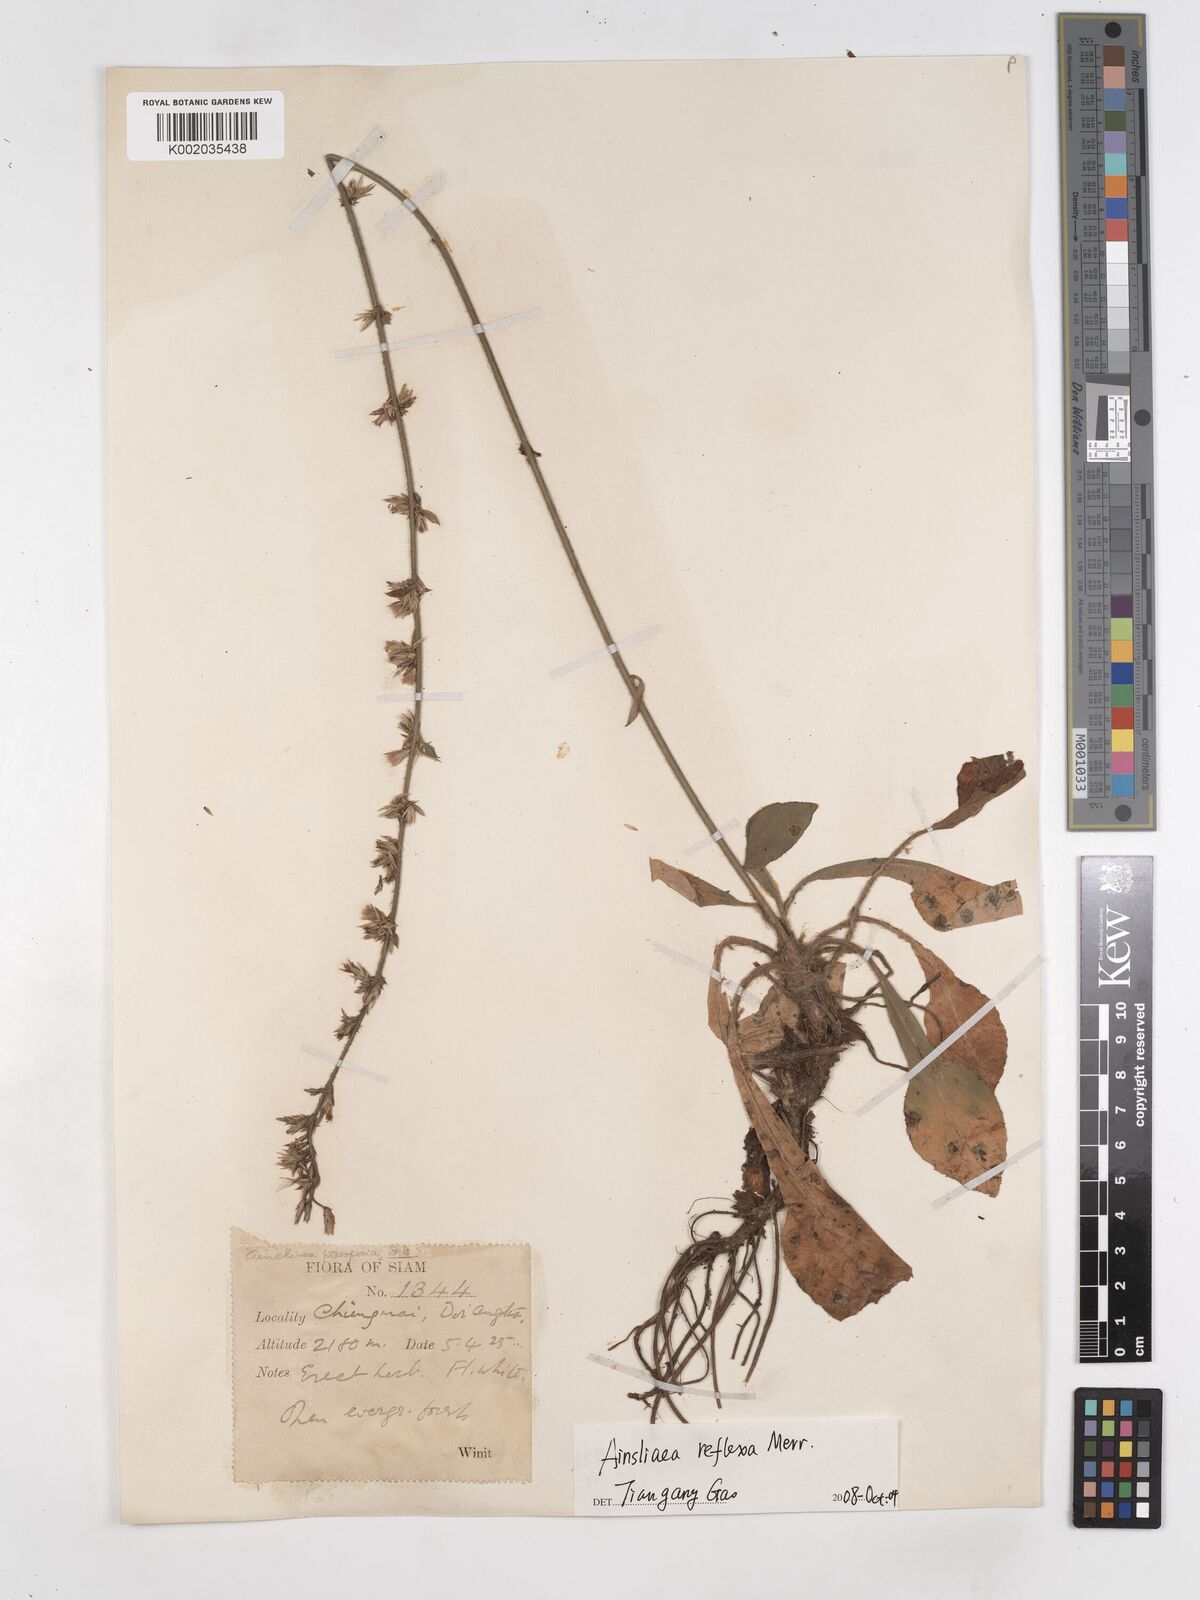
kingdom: Plantae
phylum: Tracheophyta
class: Magnoliopsida
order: Asterales
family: Asteraceae
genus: Ainsliaea
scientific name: Ainsliaea reflexa
